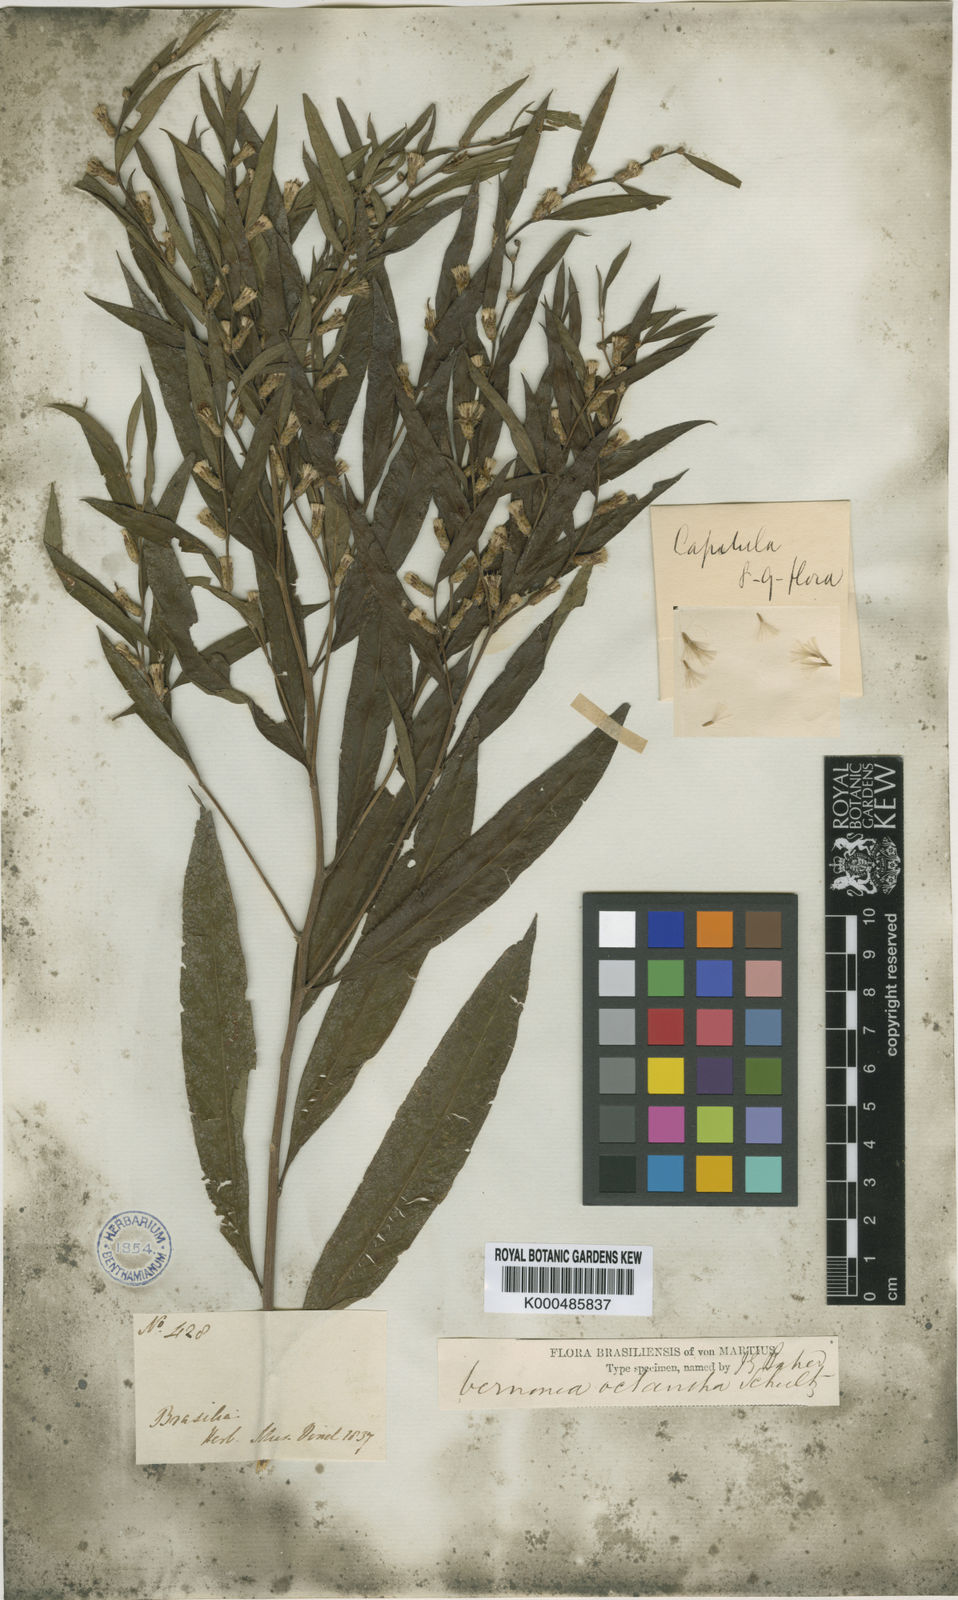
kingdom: Plantae
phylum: Tracheophyta
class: Magnoliopsida
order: Asterales
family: Asteraceae
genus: Lessingianthus
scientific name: Lessingianthus octanthus
